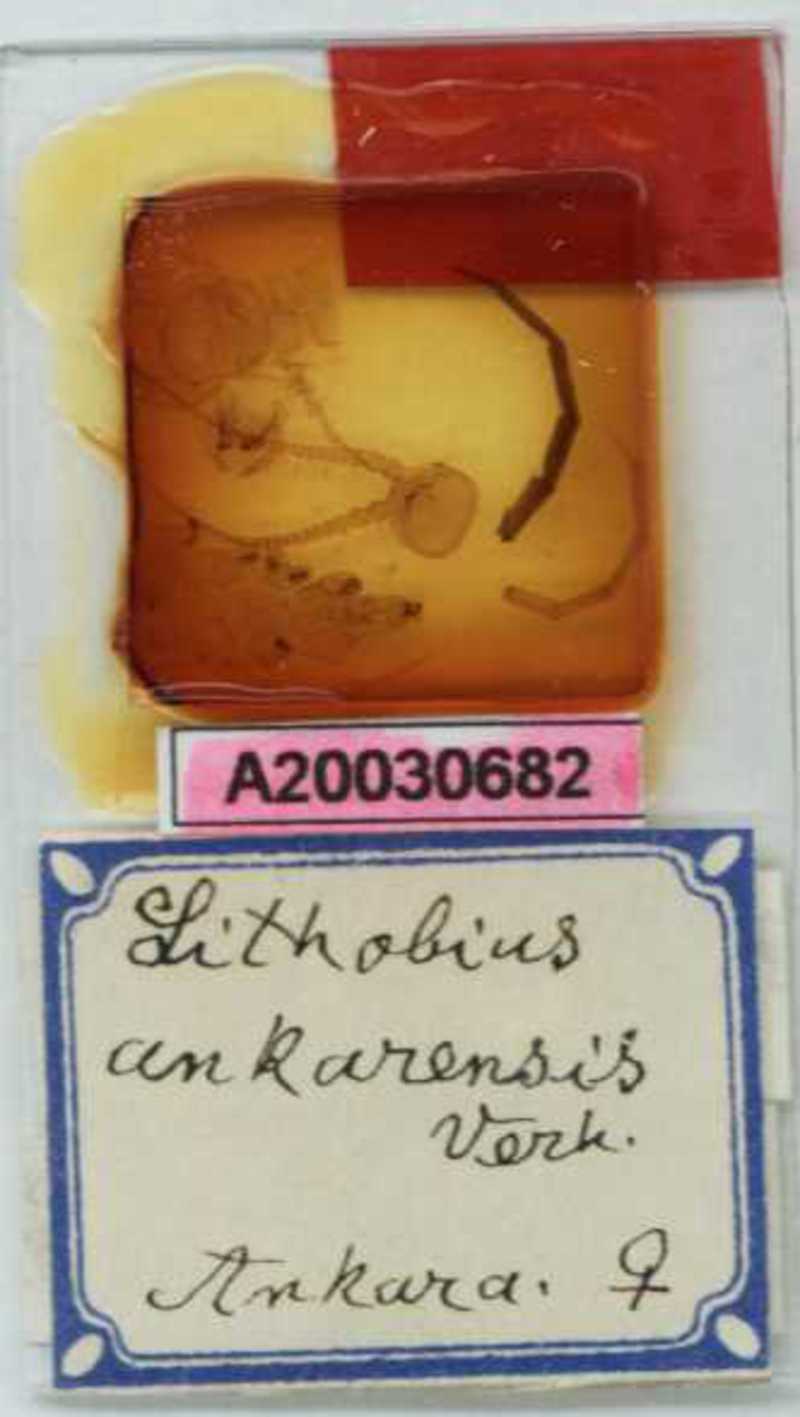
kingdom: Animalia
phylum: Arthropoda
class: Chilopoda
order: Lithobiomorpha
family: Lithobiidae
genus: Lithobius
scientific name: Lithobius nigripalpis
